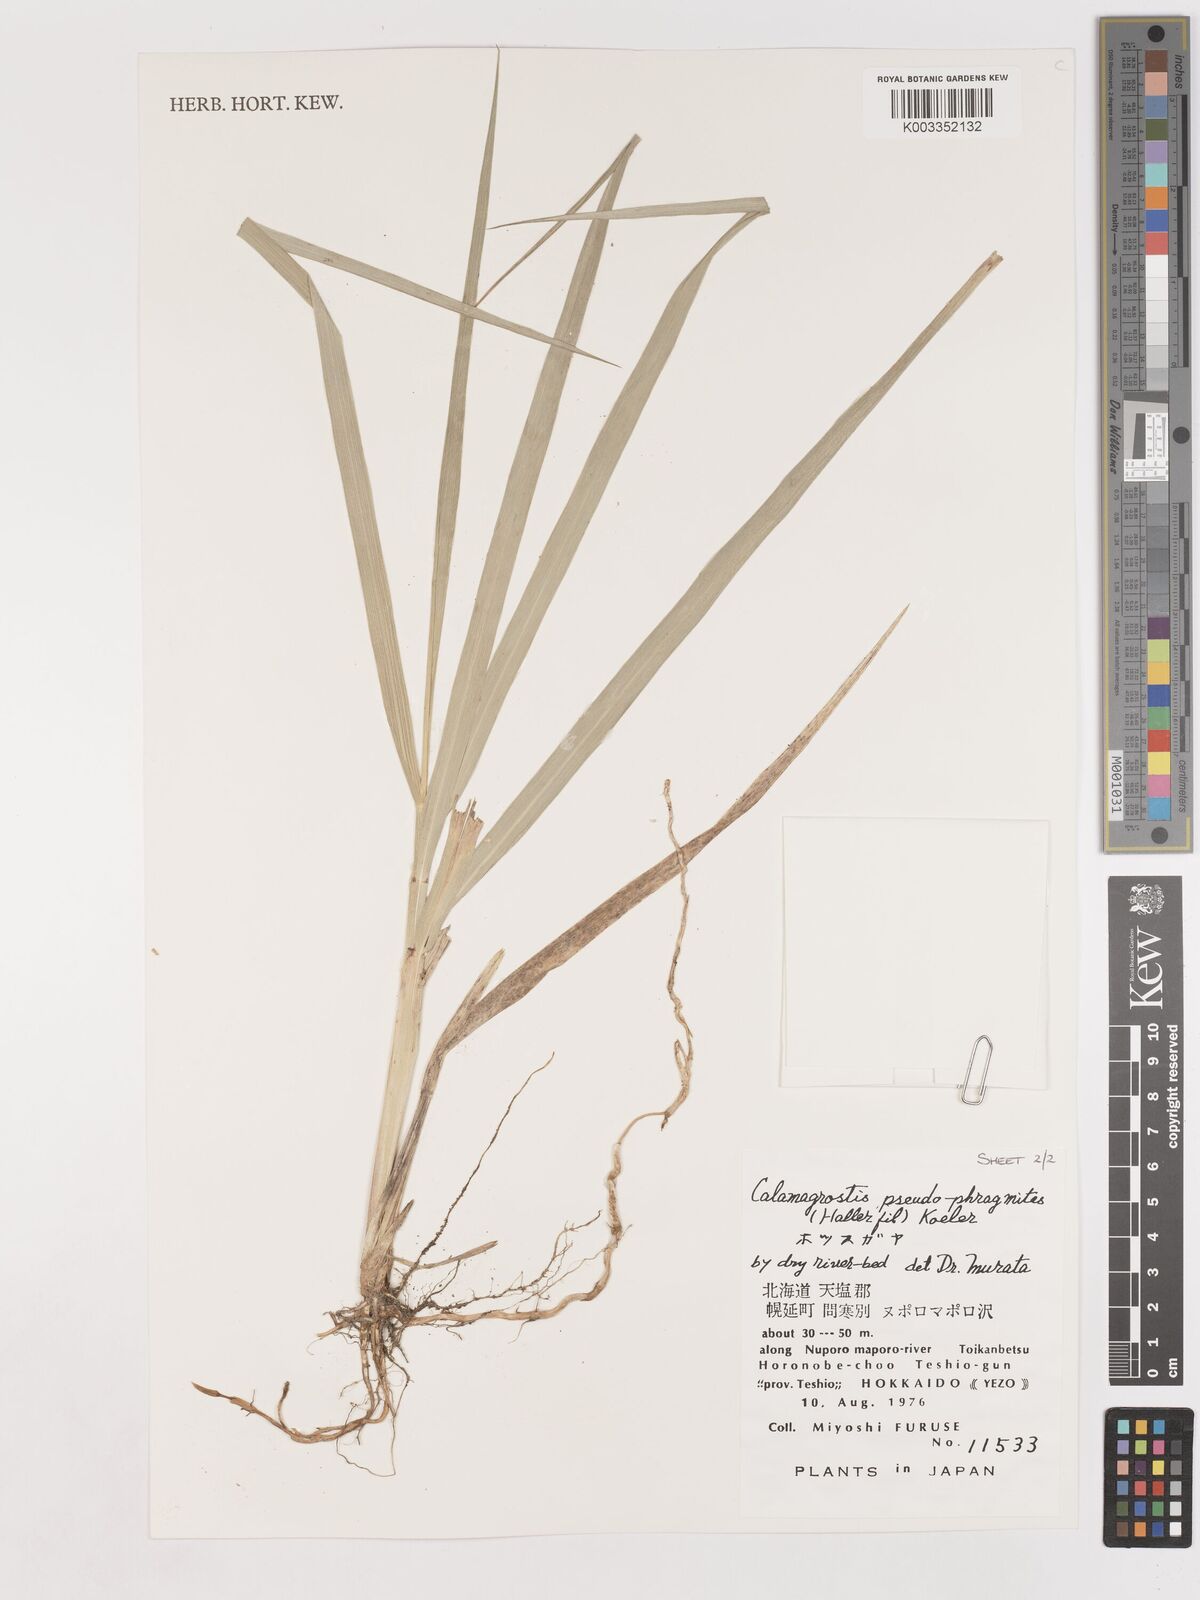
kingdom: Plantae
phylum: Tracheophyta
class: Liliopsida
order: Poales
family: Poaceae
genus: Calamagrostis
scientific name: Calamagrostis pseudophragmites
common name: Coastal small-reed
